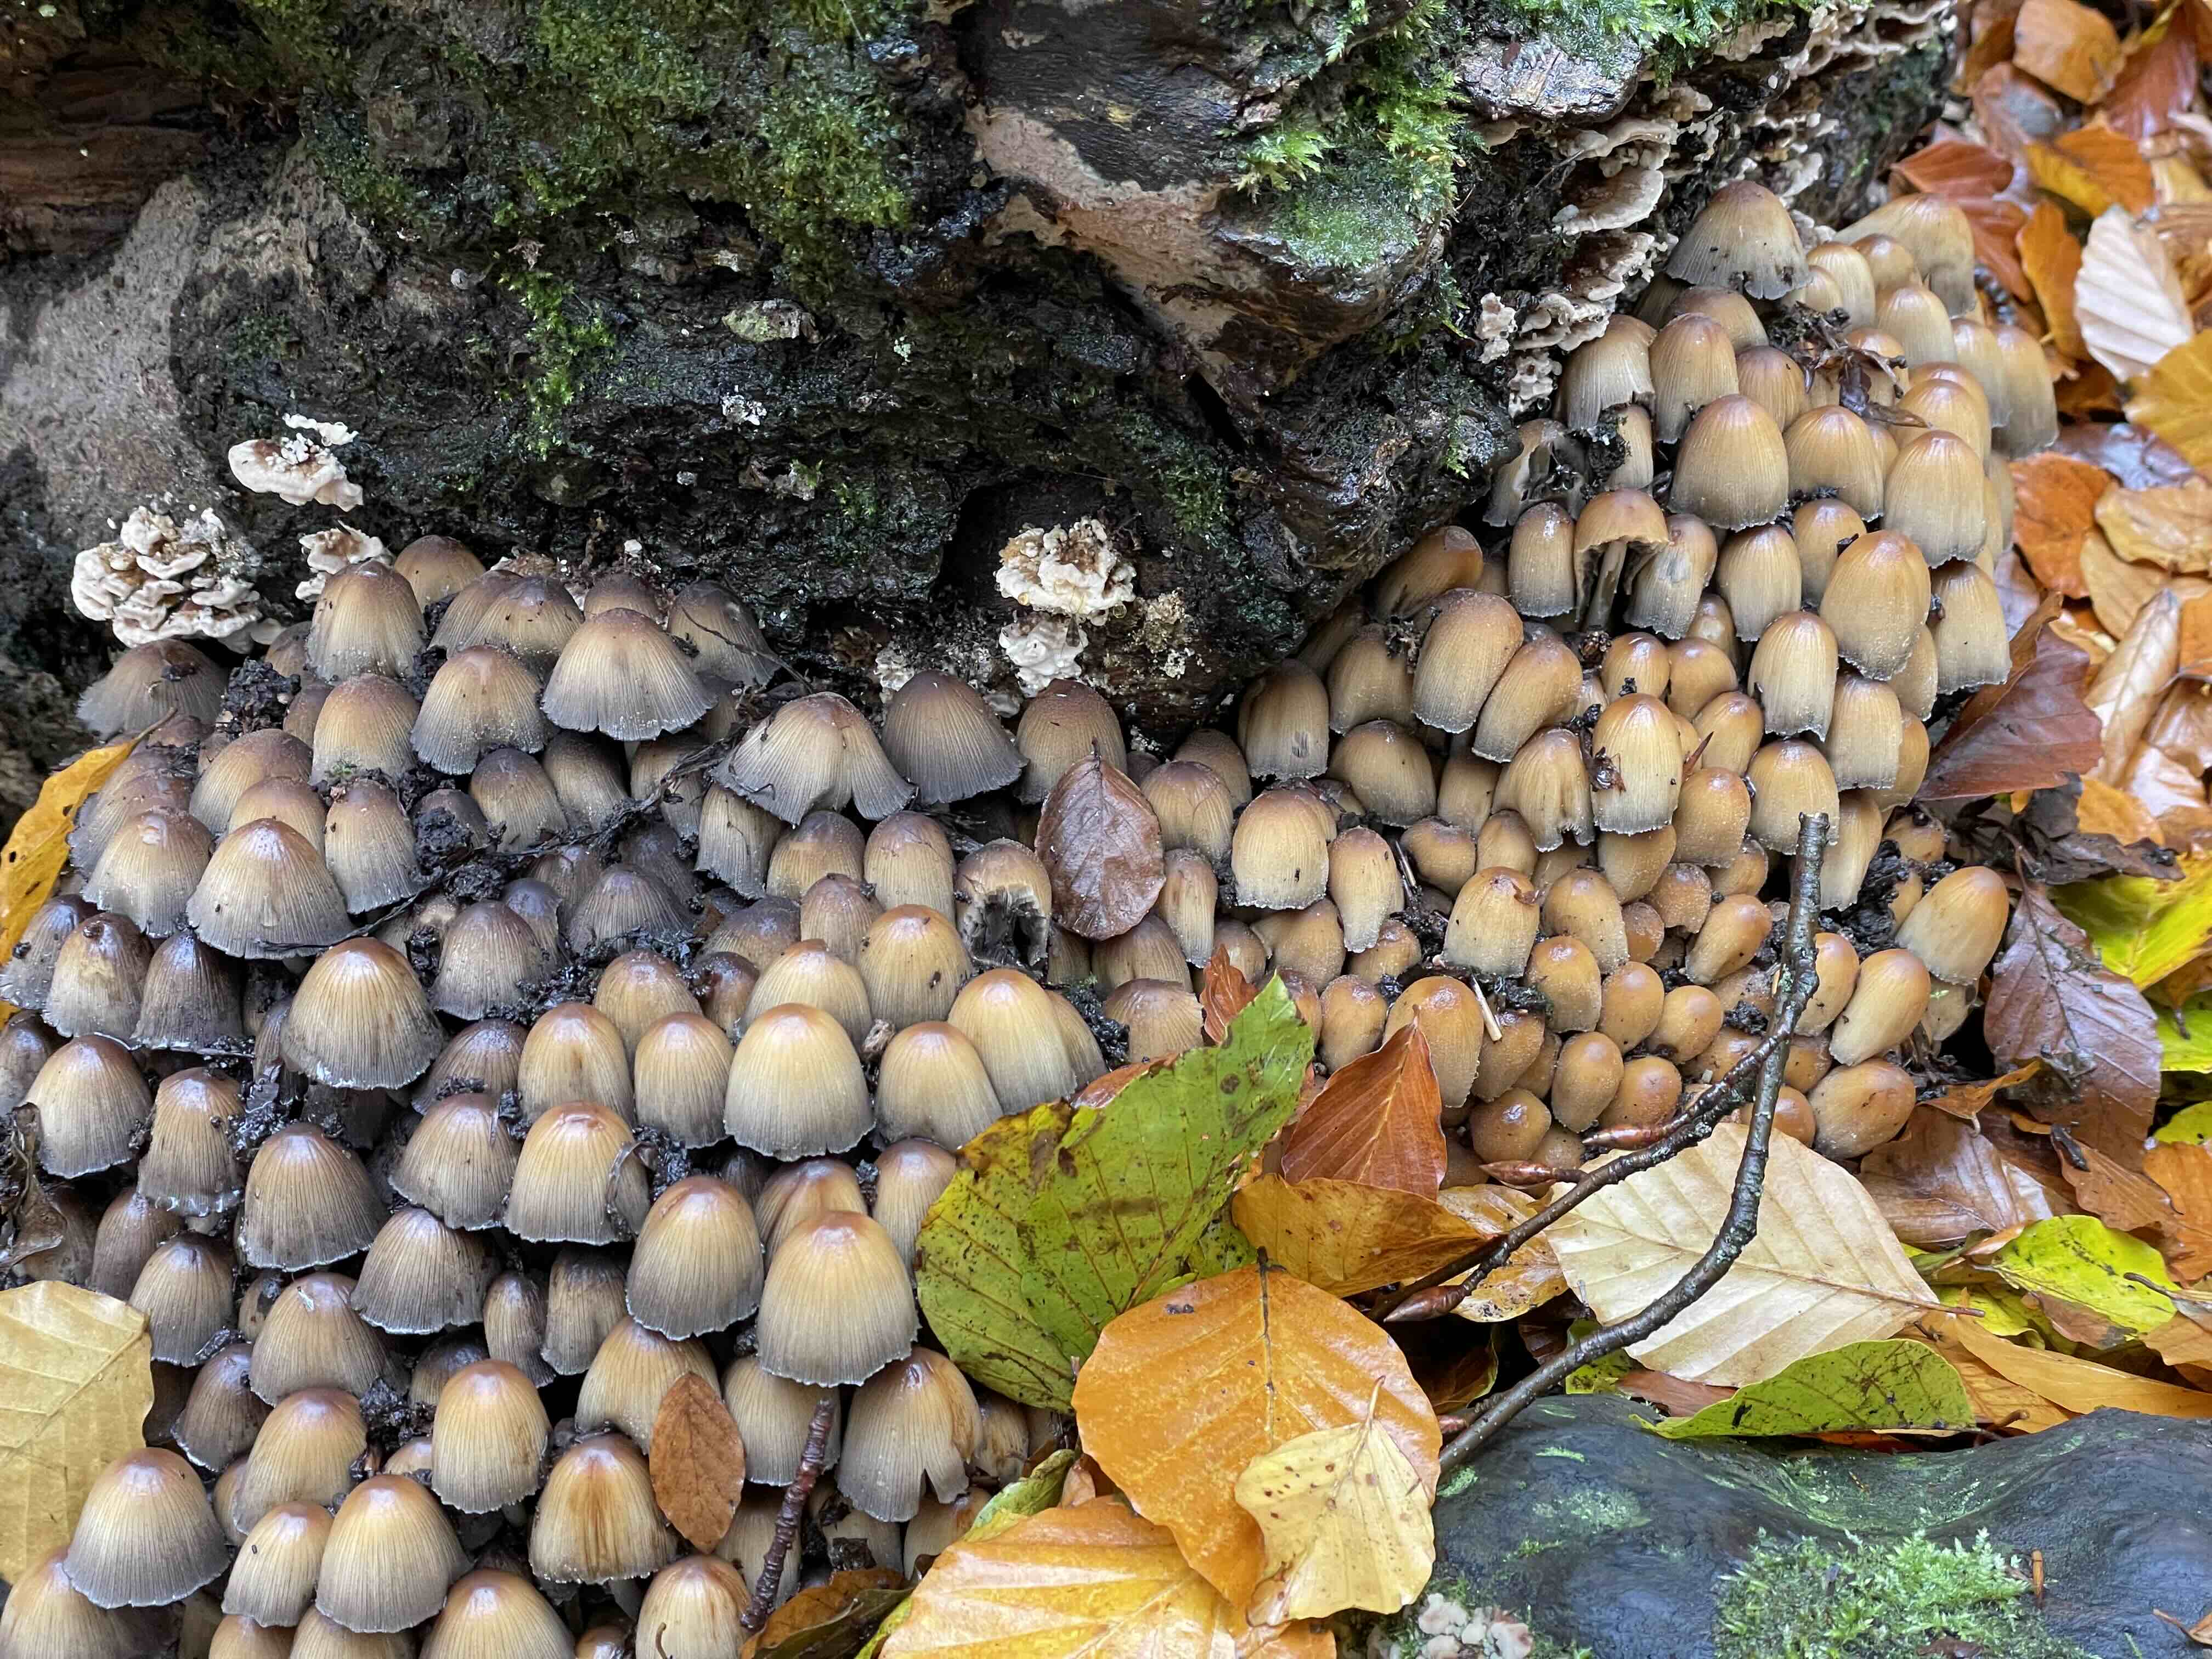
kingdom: Fungi
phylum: Basidiomycota
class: Agaricomycetes
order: Agaricales
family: Psathyrellaceae
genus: Coprinellus
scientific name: Coprinellus micaceus
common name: glimmer-blækhat
